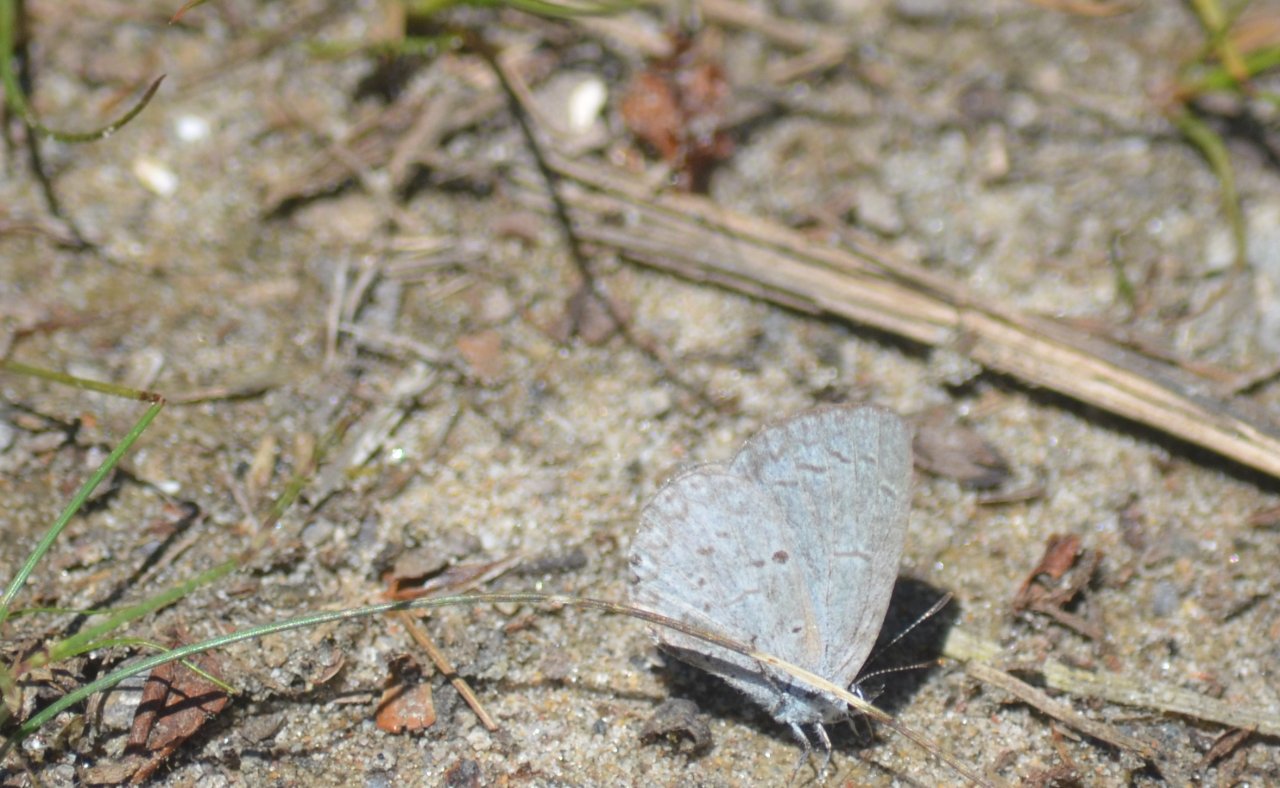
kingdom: Animalia
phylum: Arthropoda
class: Insecta
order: Lepidoptera
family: Lycaenidae
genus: Celastrina
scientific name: Celastrina lucia
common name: Northern Spring Azure
